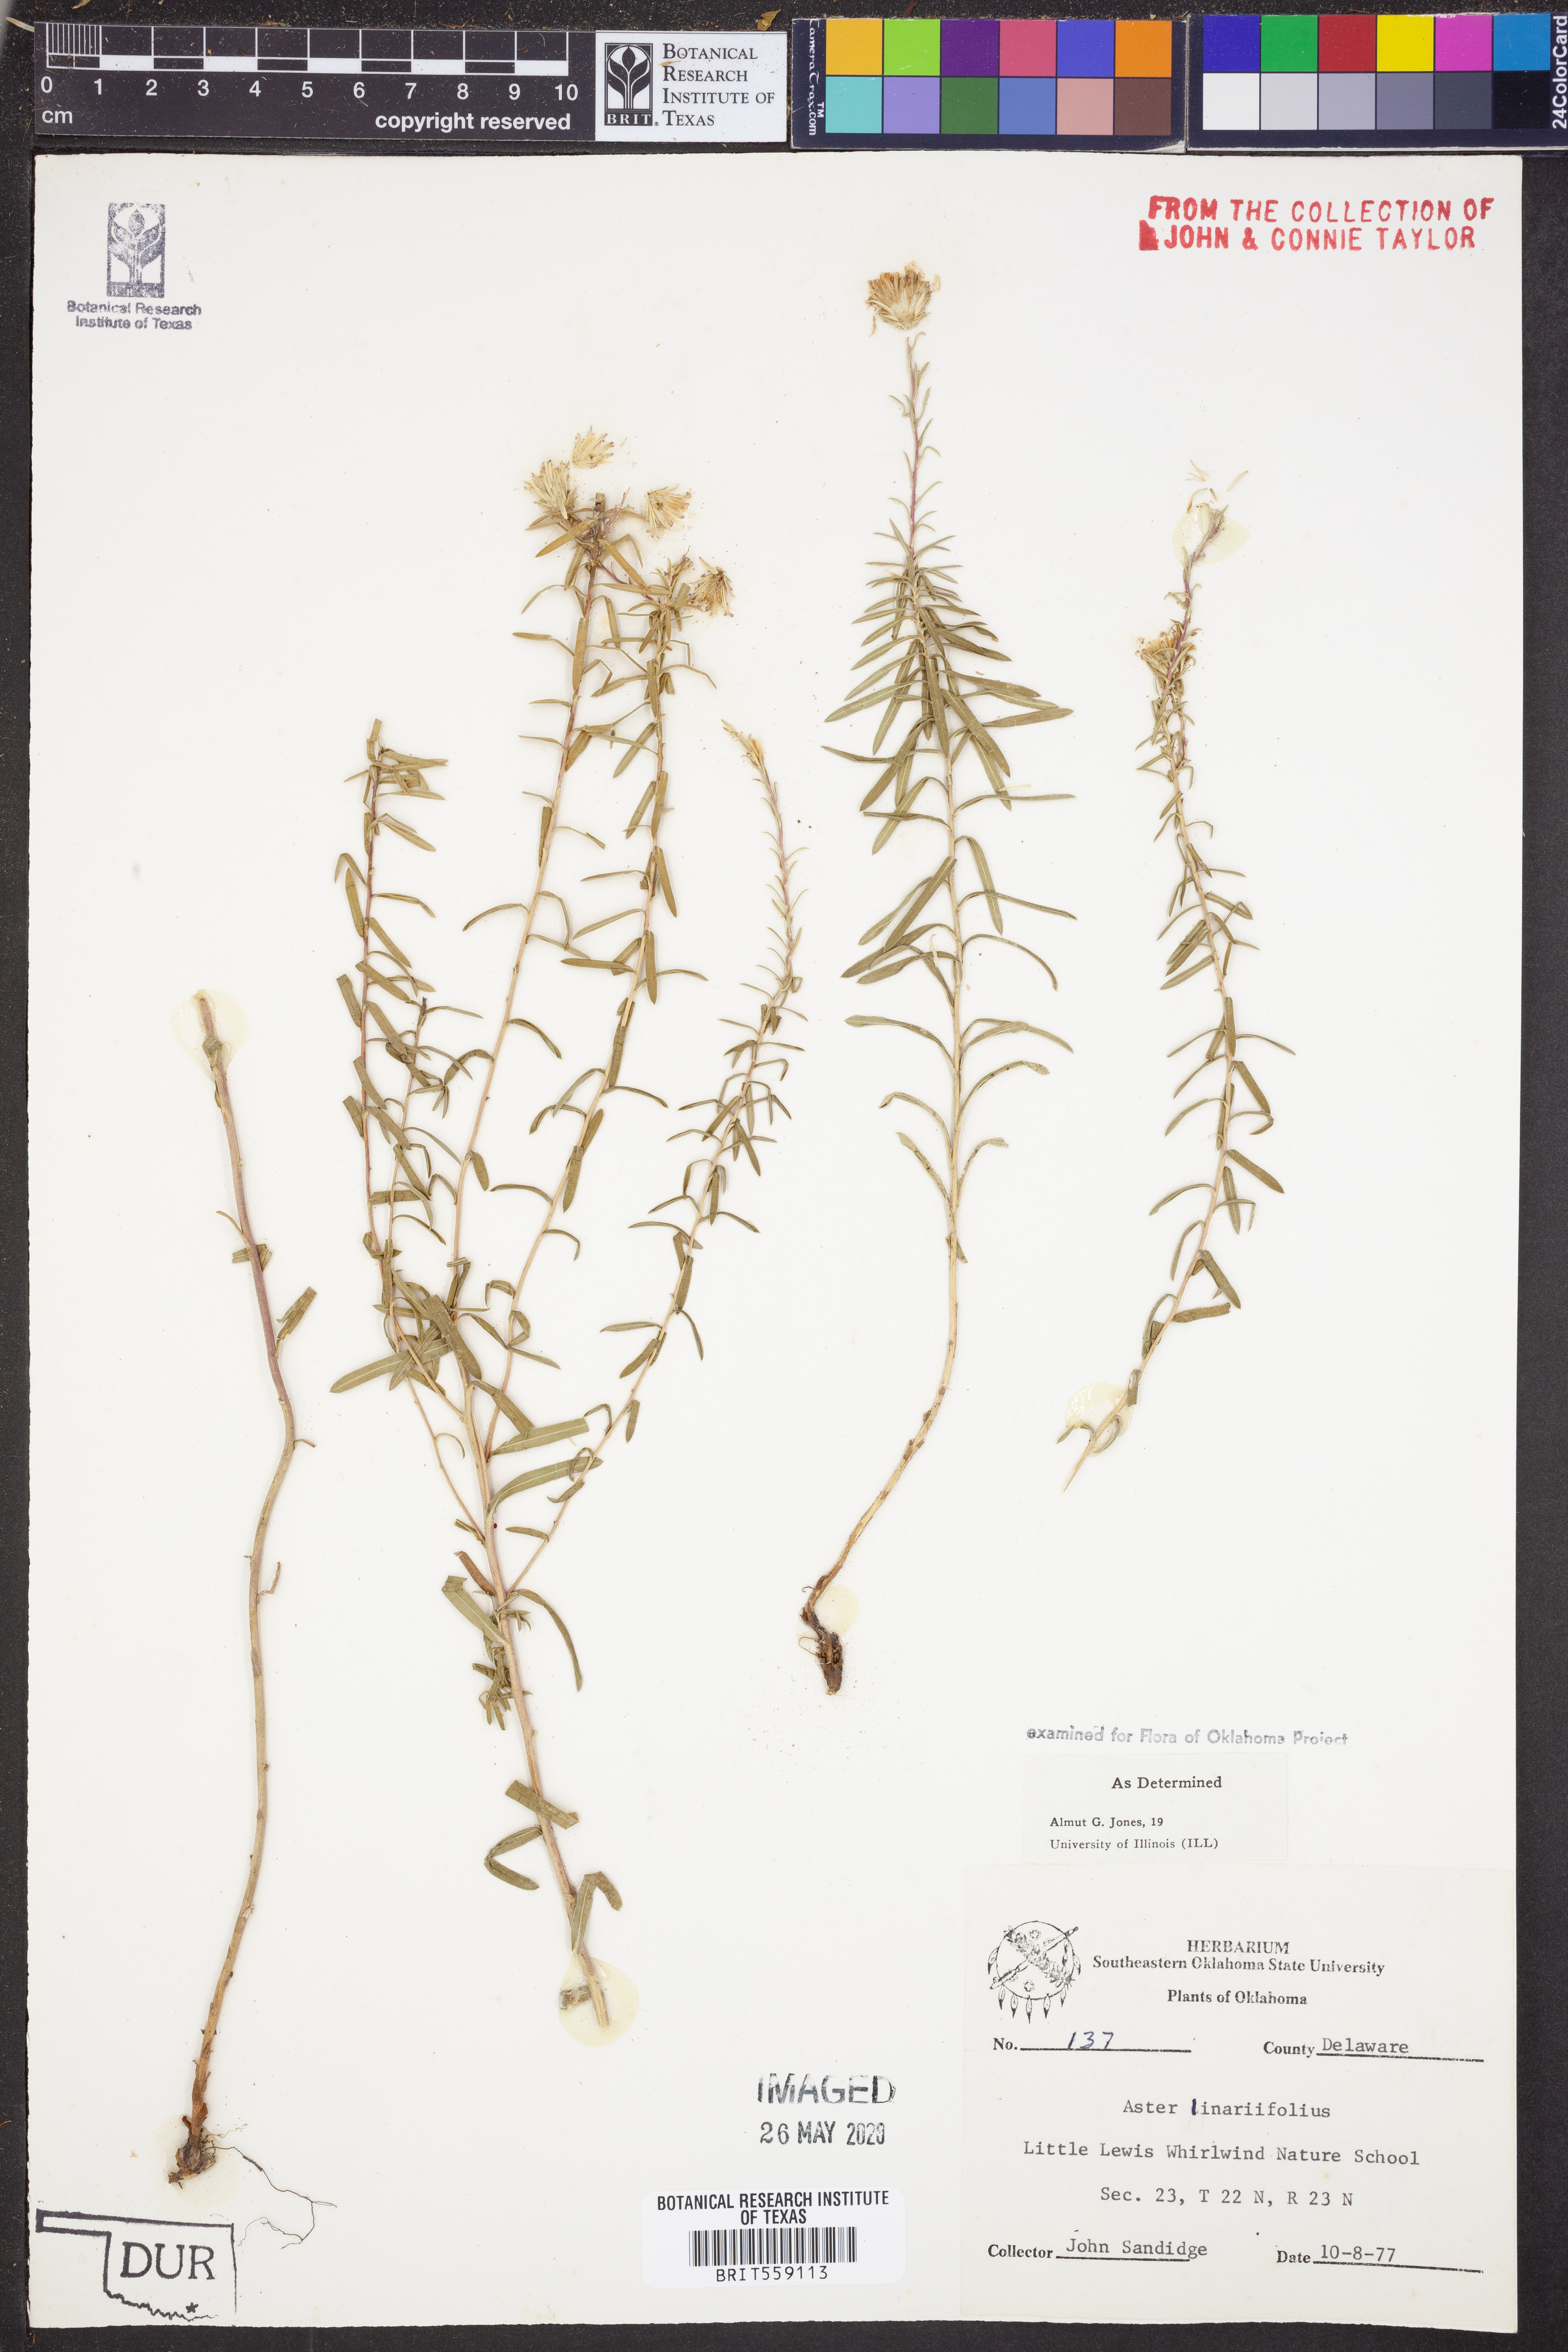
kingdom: Plantae
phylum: Tracheophyta
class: Magnoliopsida
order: Asterales
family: Asteraceae
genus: Ionactis
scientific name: Ionactis linariifolia
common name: Flax-leaf aster
